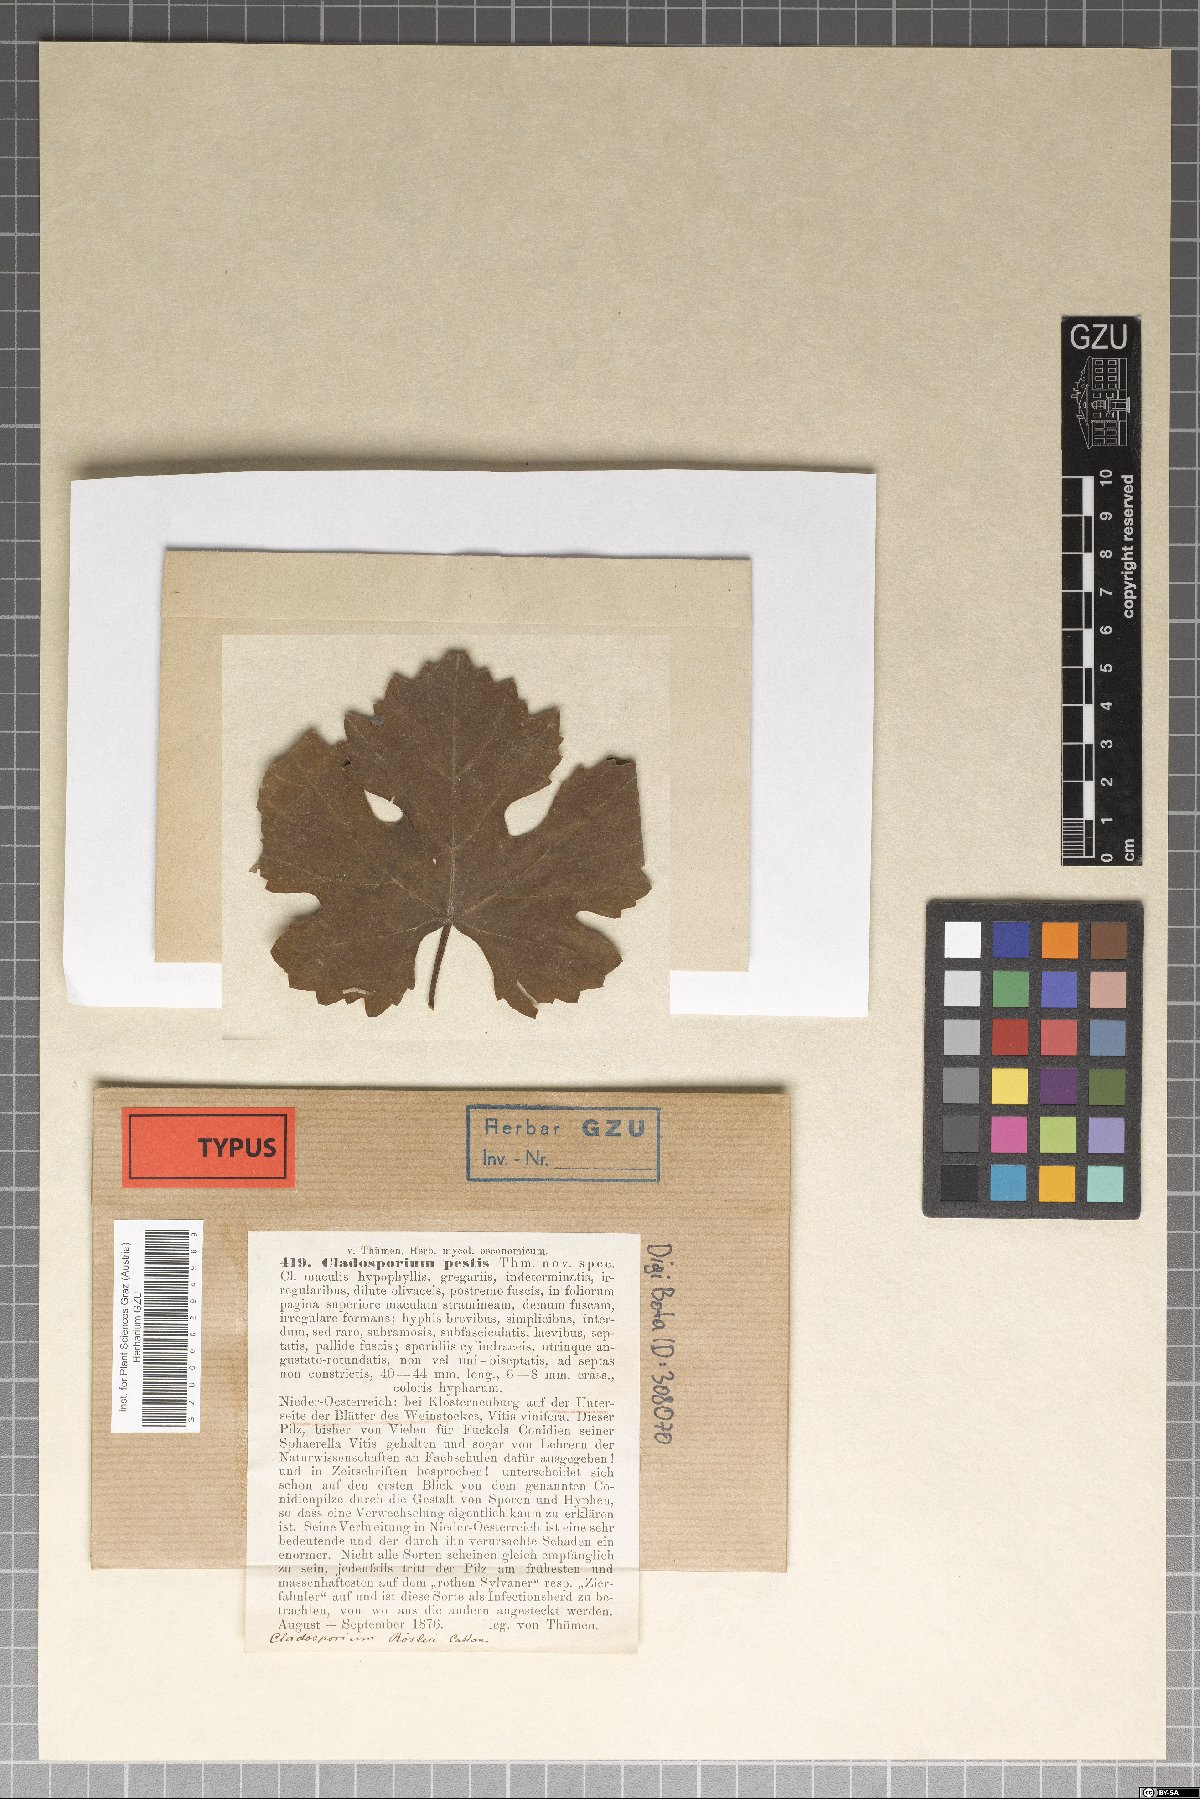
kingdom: Fungi
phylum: Ascomycota
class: Dothideomycetes
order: Capnodiales
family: Davidiellaceae
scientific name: Davidiellaceae
